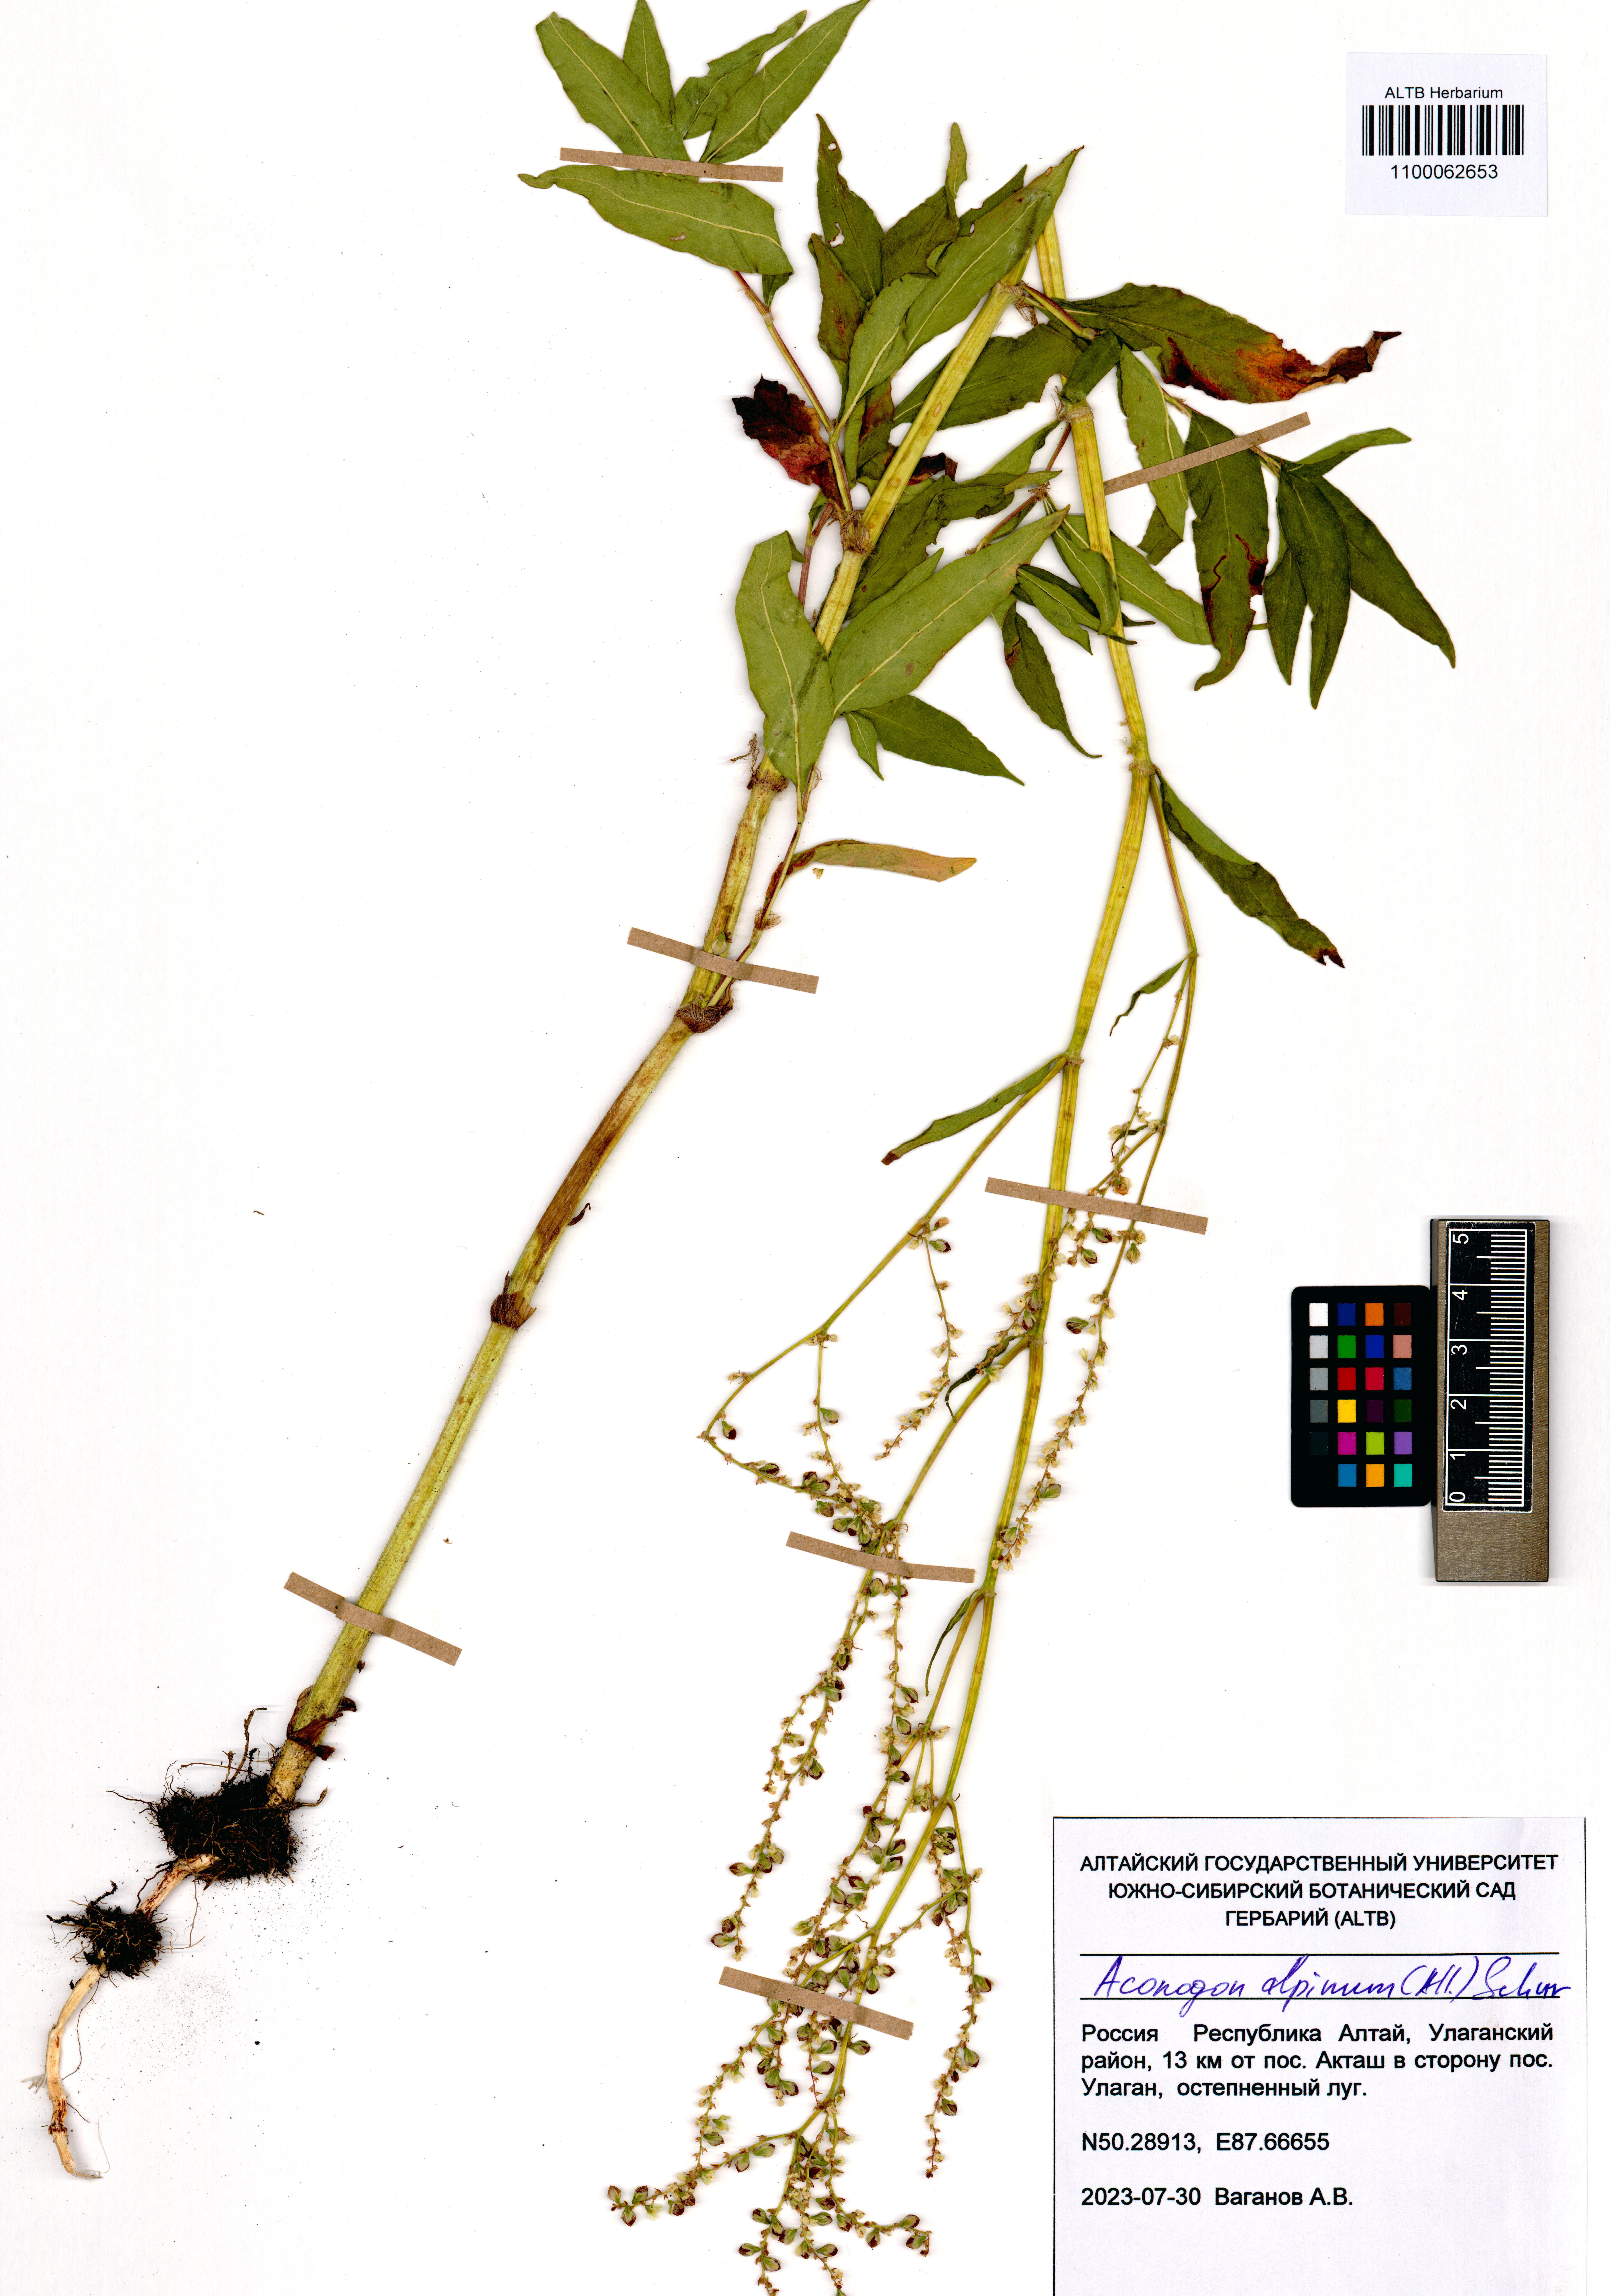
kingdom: Plantae
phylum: Tracheophyta
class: Magnoliopsida
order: Caryophyllales
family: Polygonaceae
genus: Koenigia
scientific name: Koenigia alpina
